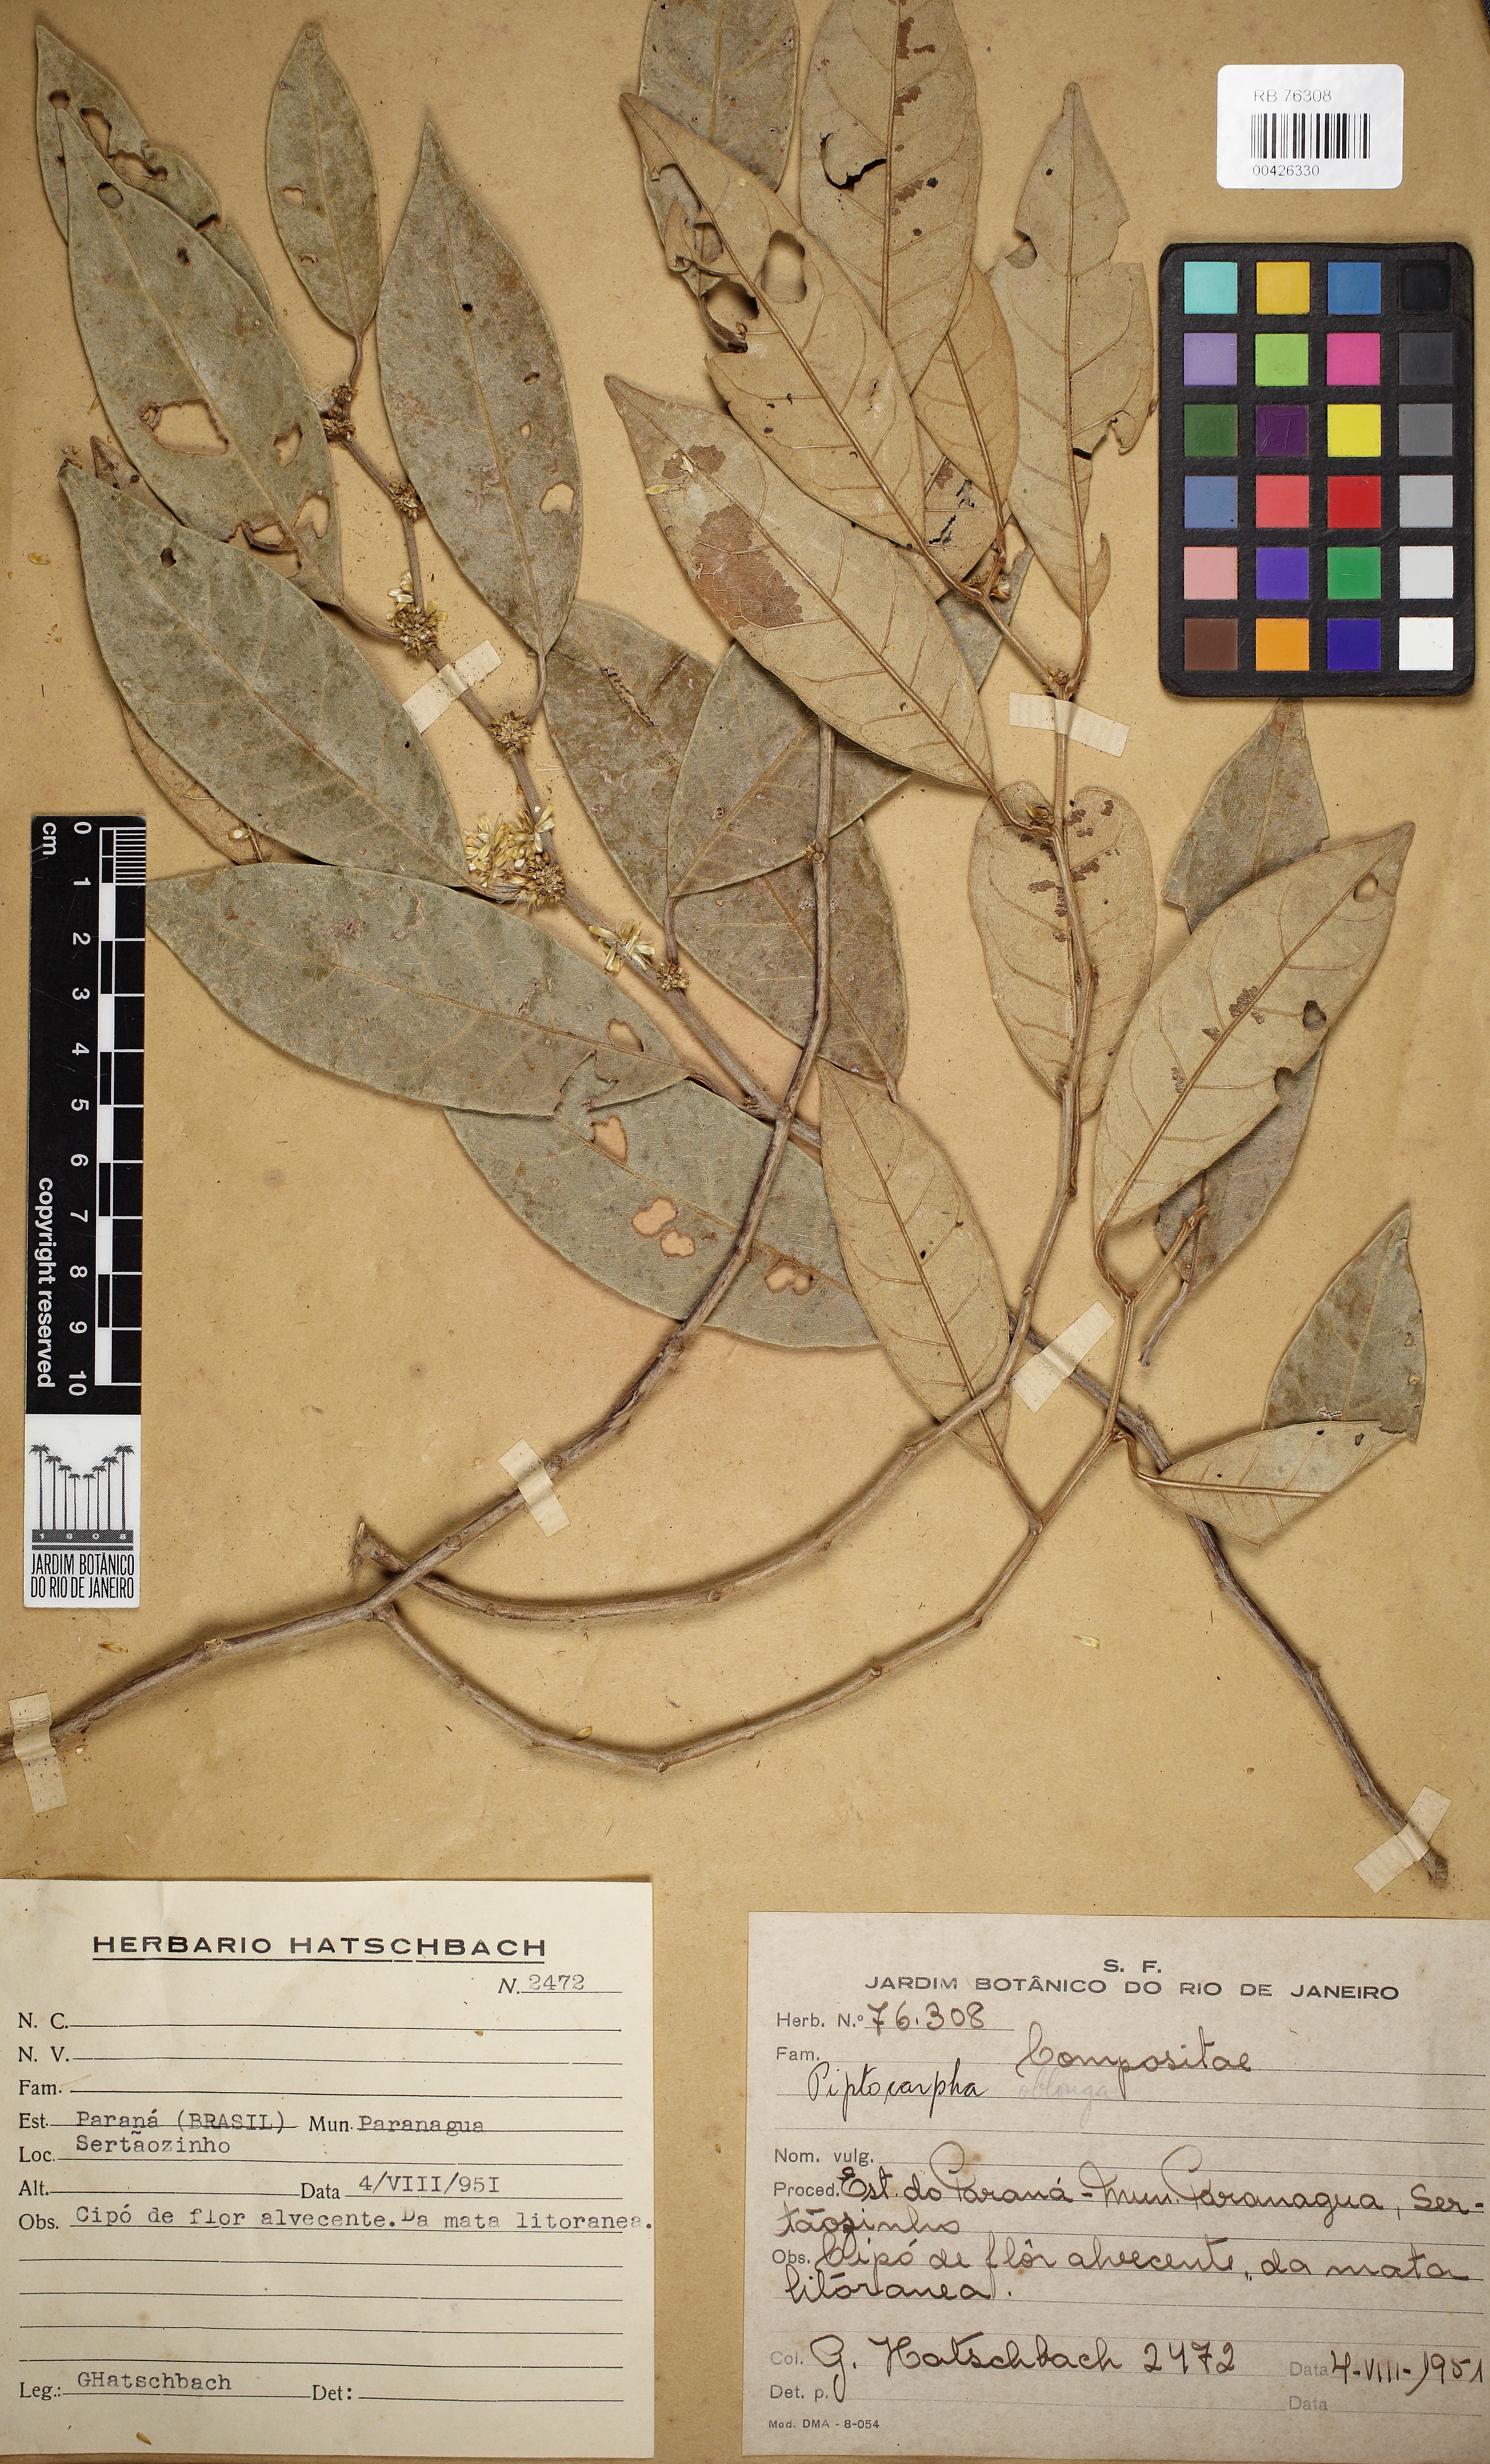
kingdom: Plantae
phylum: Tracheophyta
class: Magnoliopsida
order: Asterales
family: Asteraceae
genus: Piptocarpha
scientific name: Piptocarpha oblonga
